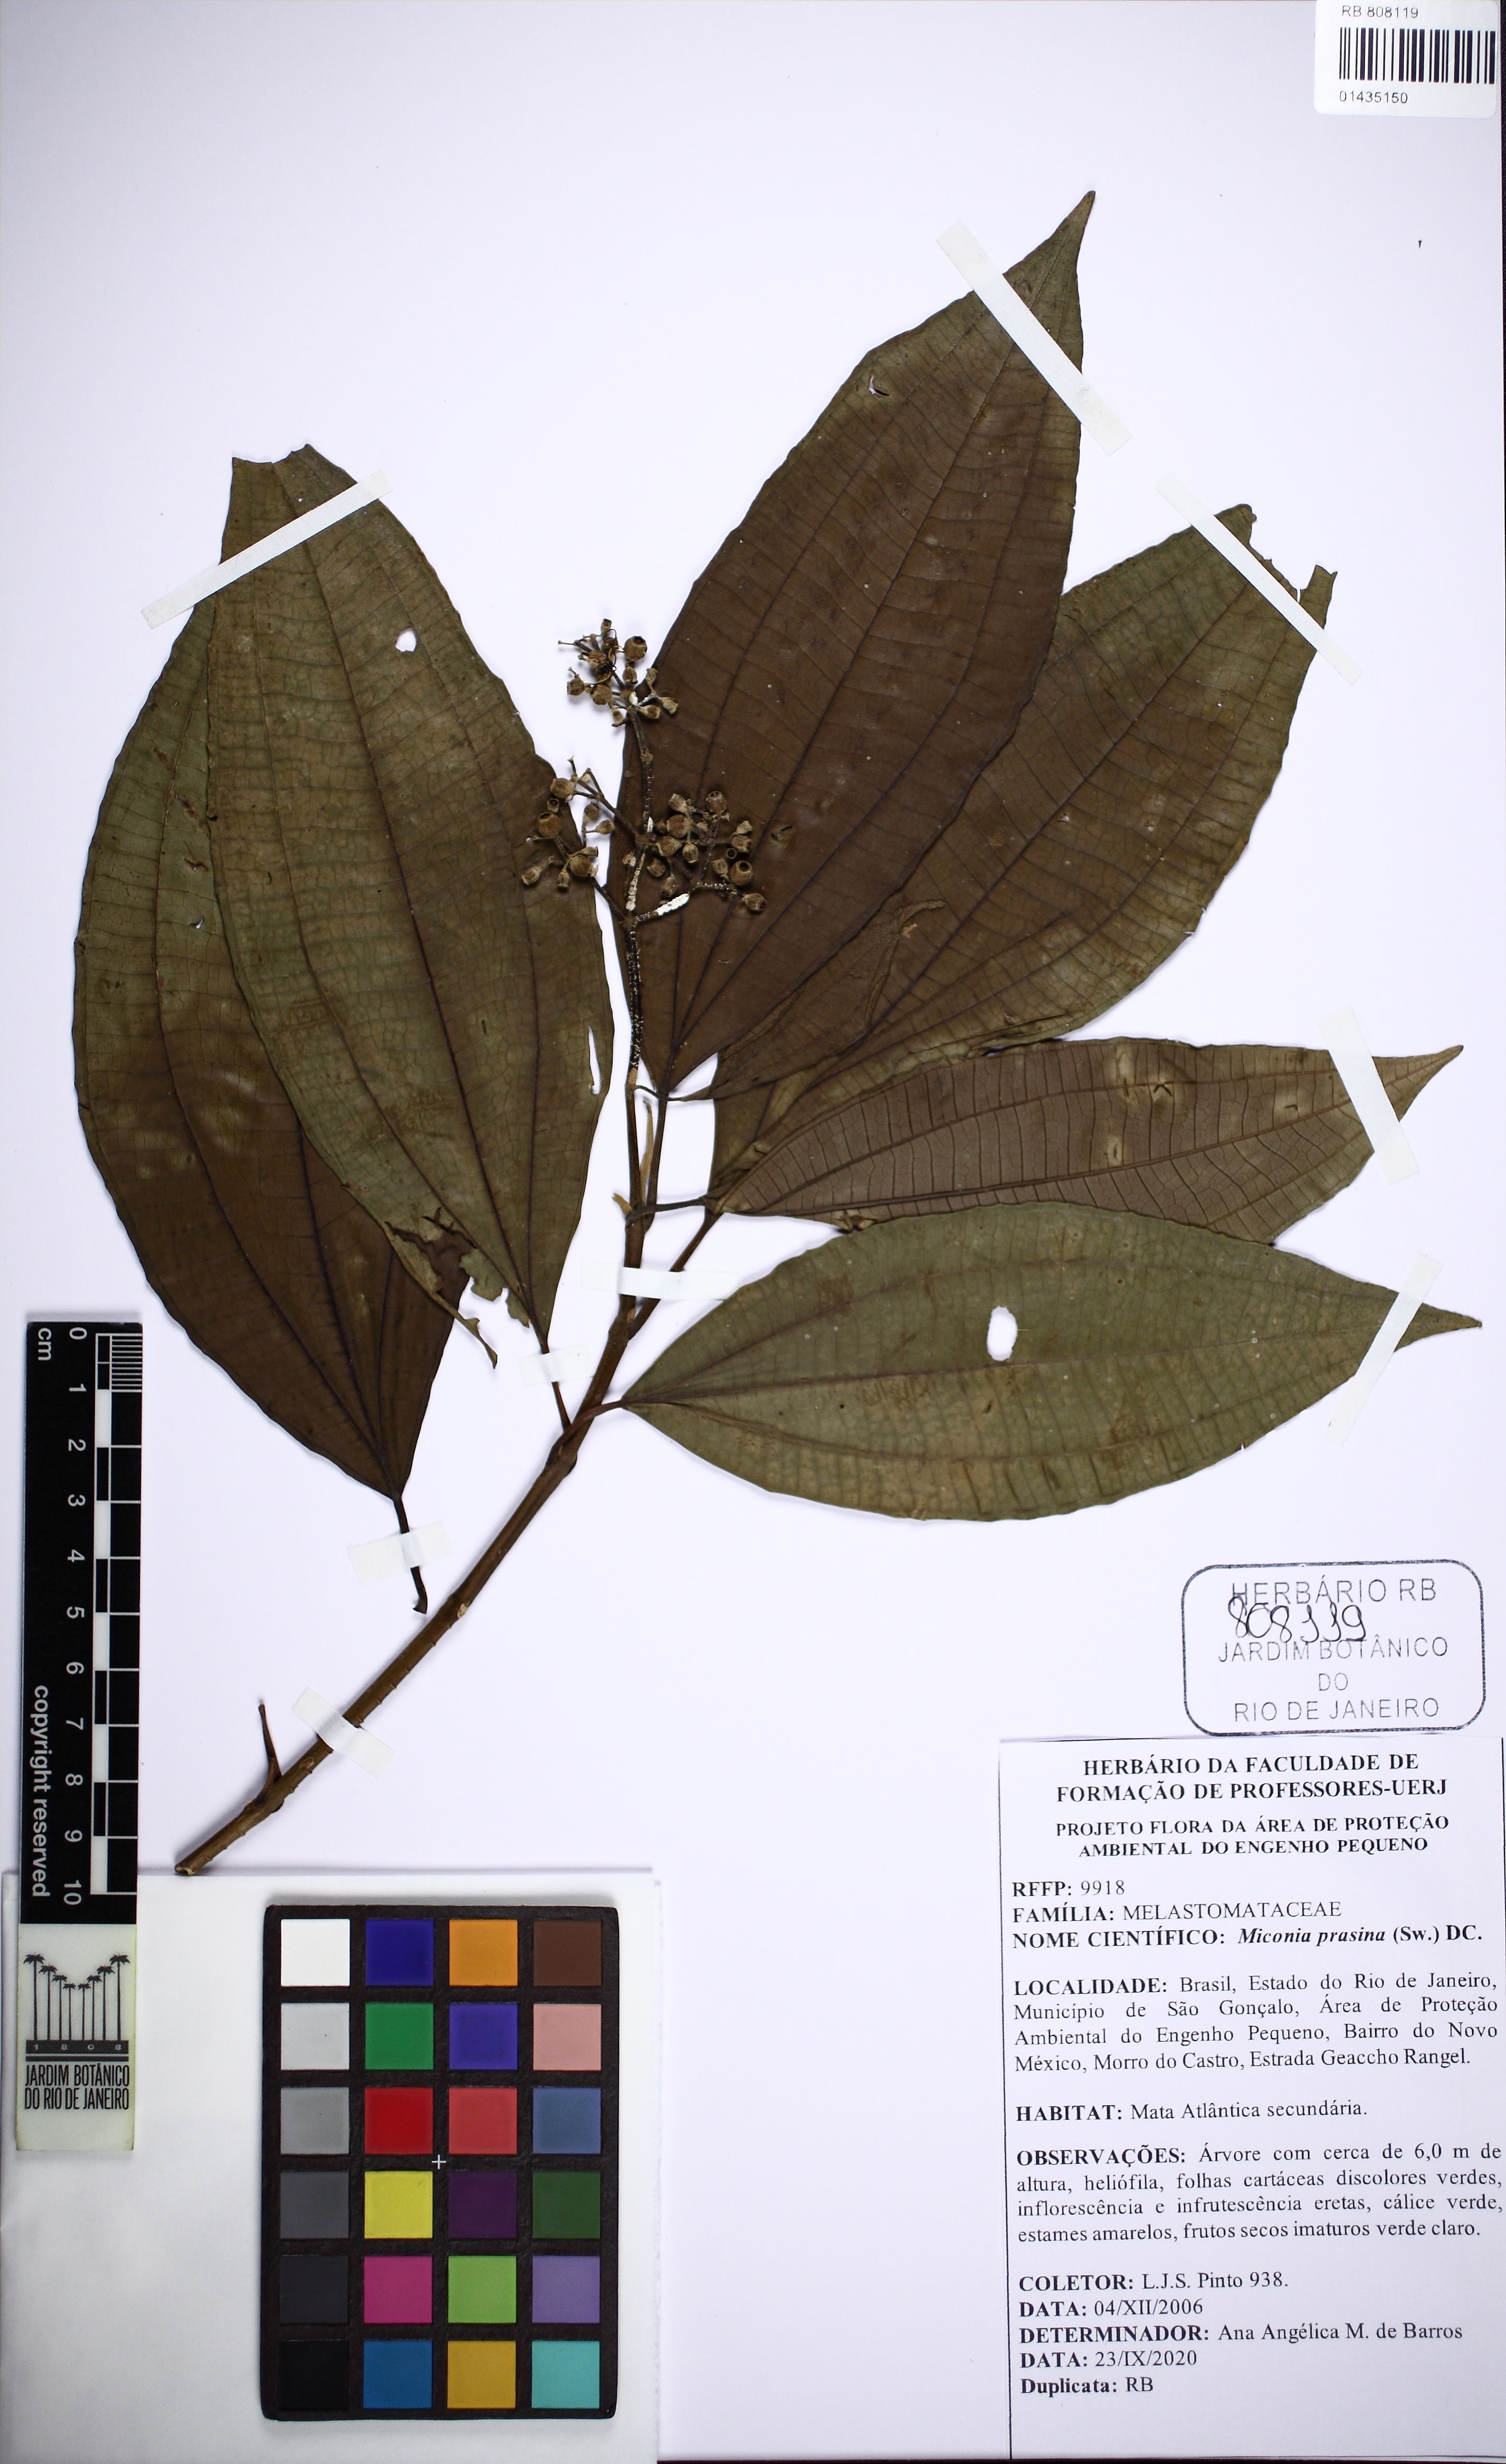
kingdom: Plantae
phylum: Tracheophyta
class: Magnoliopsida
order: Myrtales
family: Melastomataceae
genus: Miconia
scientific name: Miconia prasina
